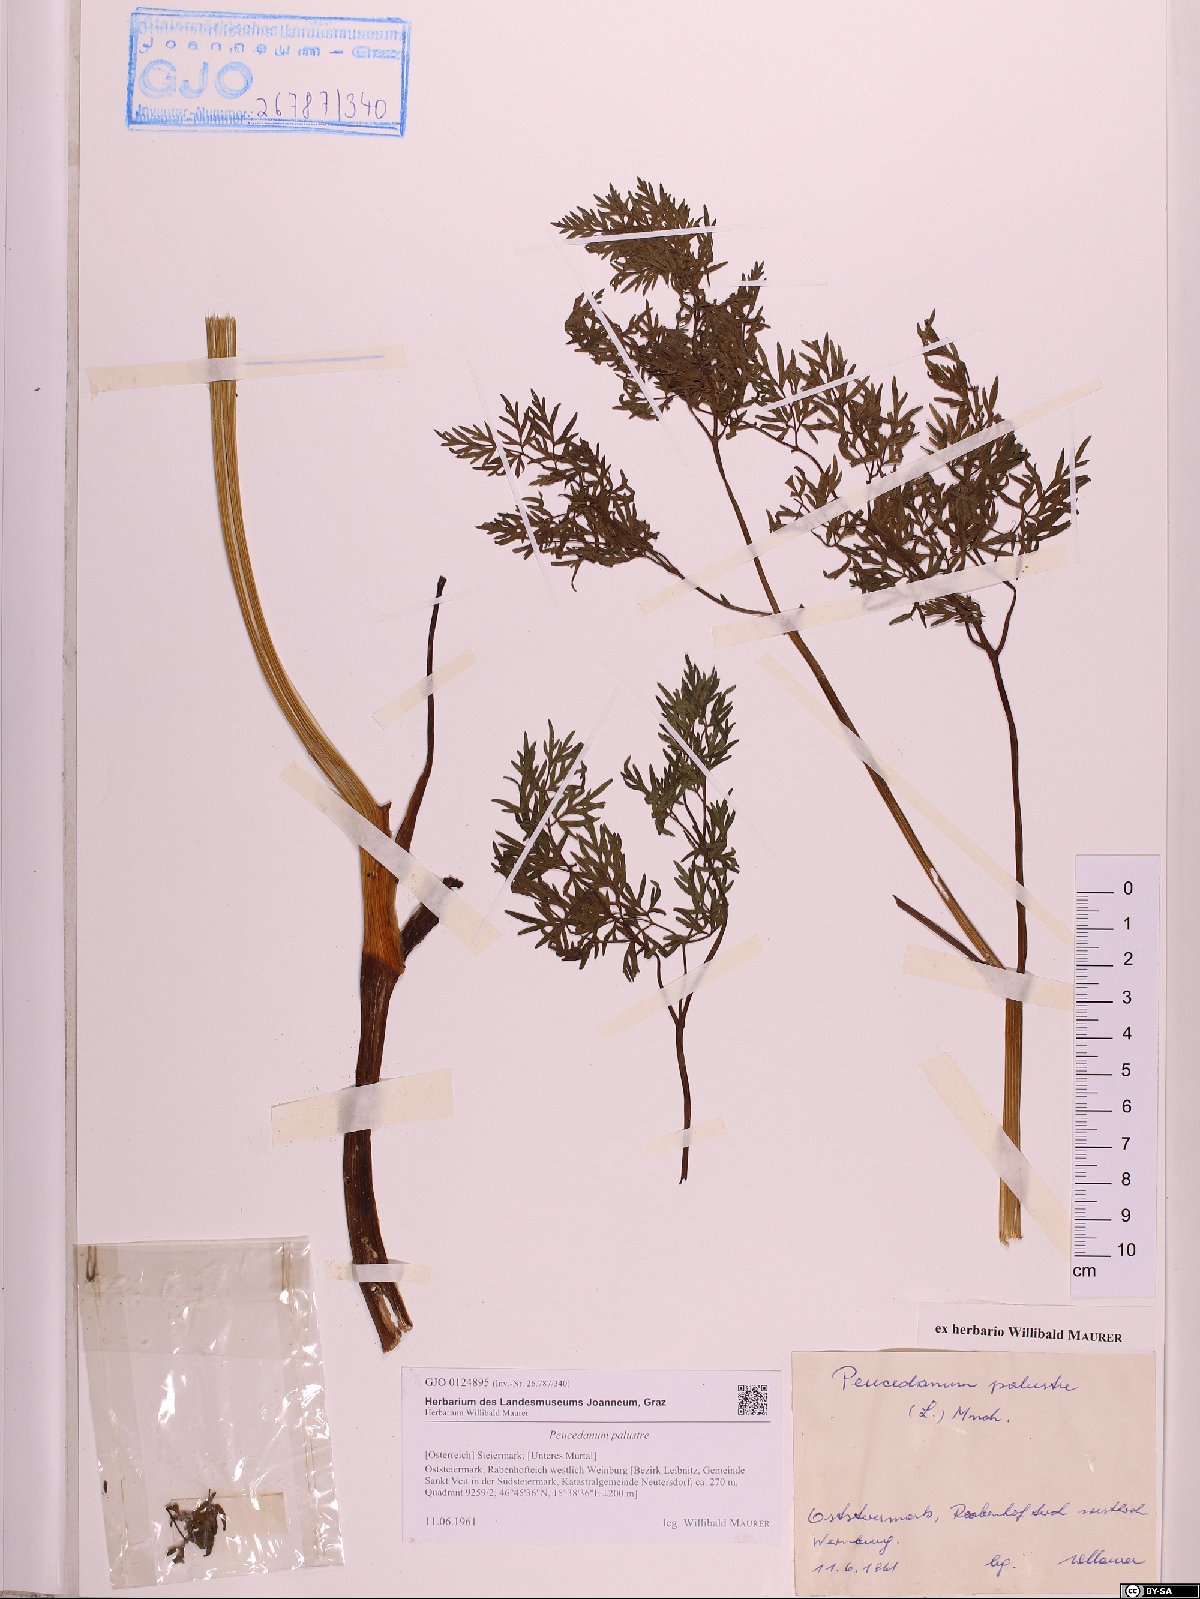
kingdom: Plantae
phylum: Tracheophyta
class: Magnoliopsida
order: Apiales
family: Apiaceae
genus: Thysselinum
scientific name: Thysselinum palustre
